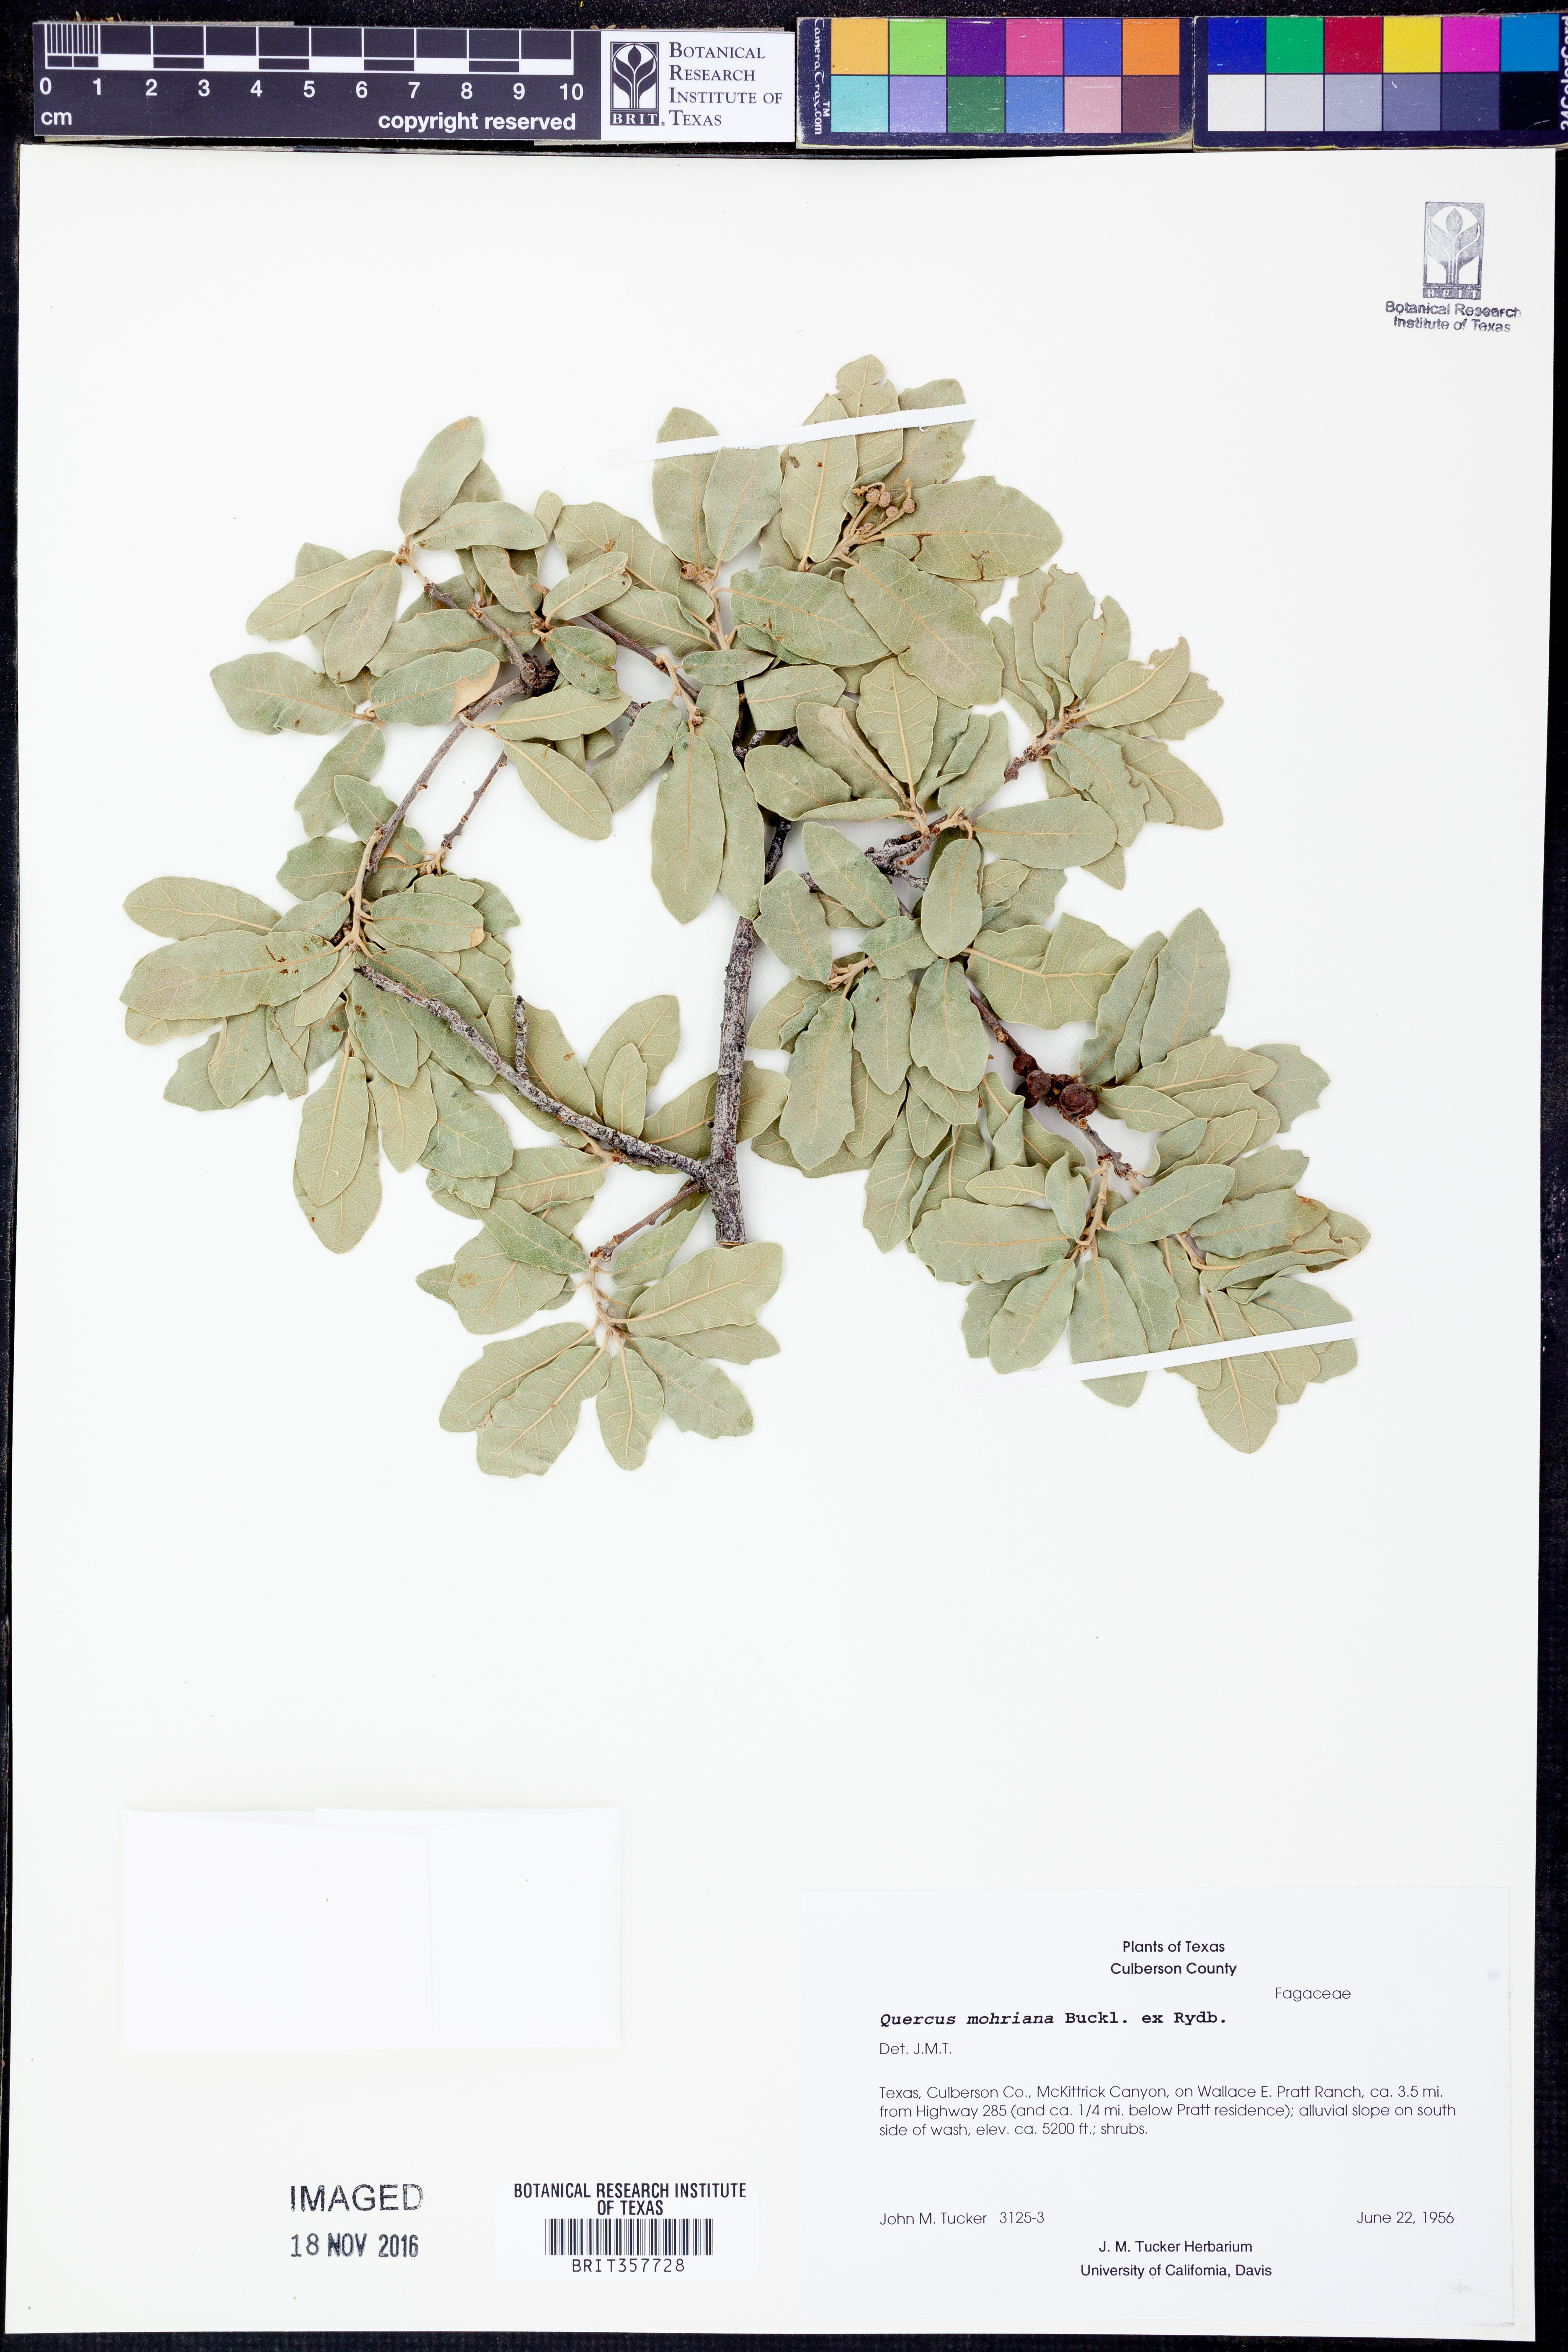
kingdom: Plantae
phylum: Tracheophyta
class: Magnoliopsida
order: Fagales
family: Fagaceae
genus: Quercus
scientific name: Quercus mohriana
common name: Mohr oak
